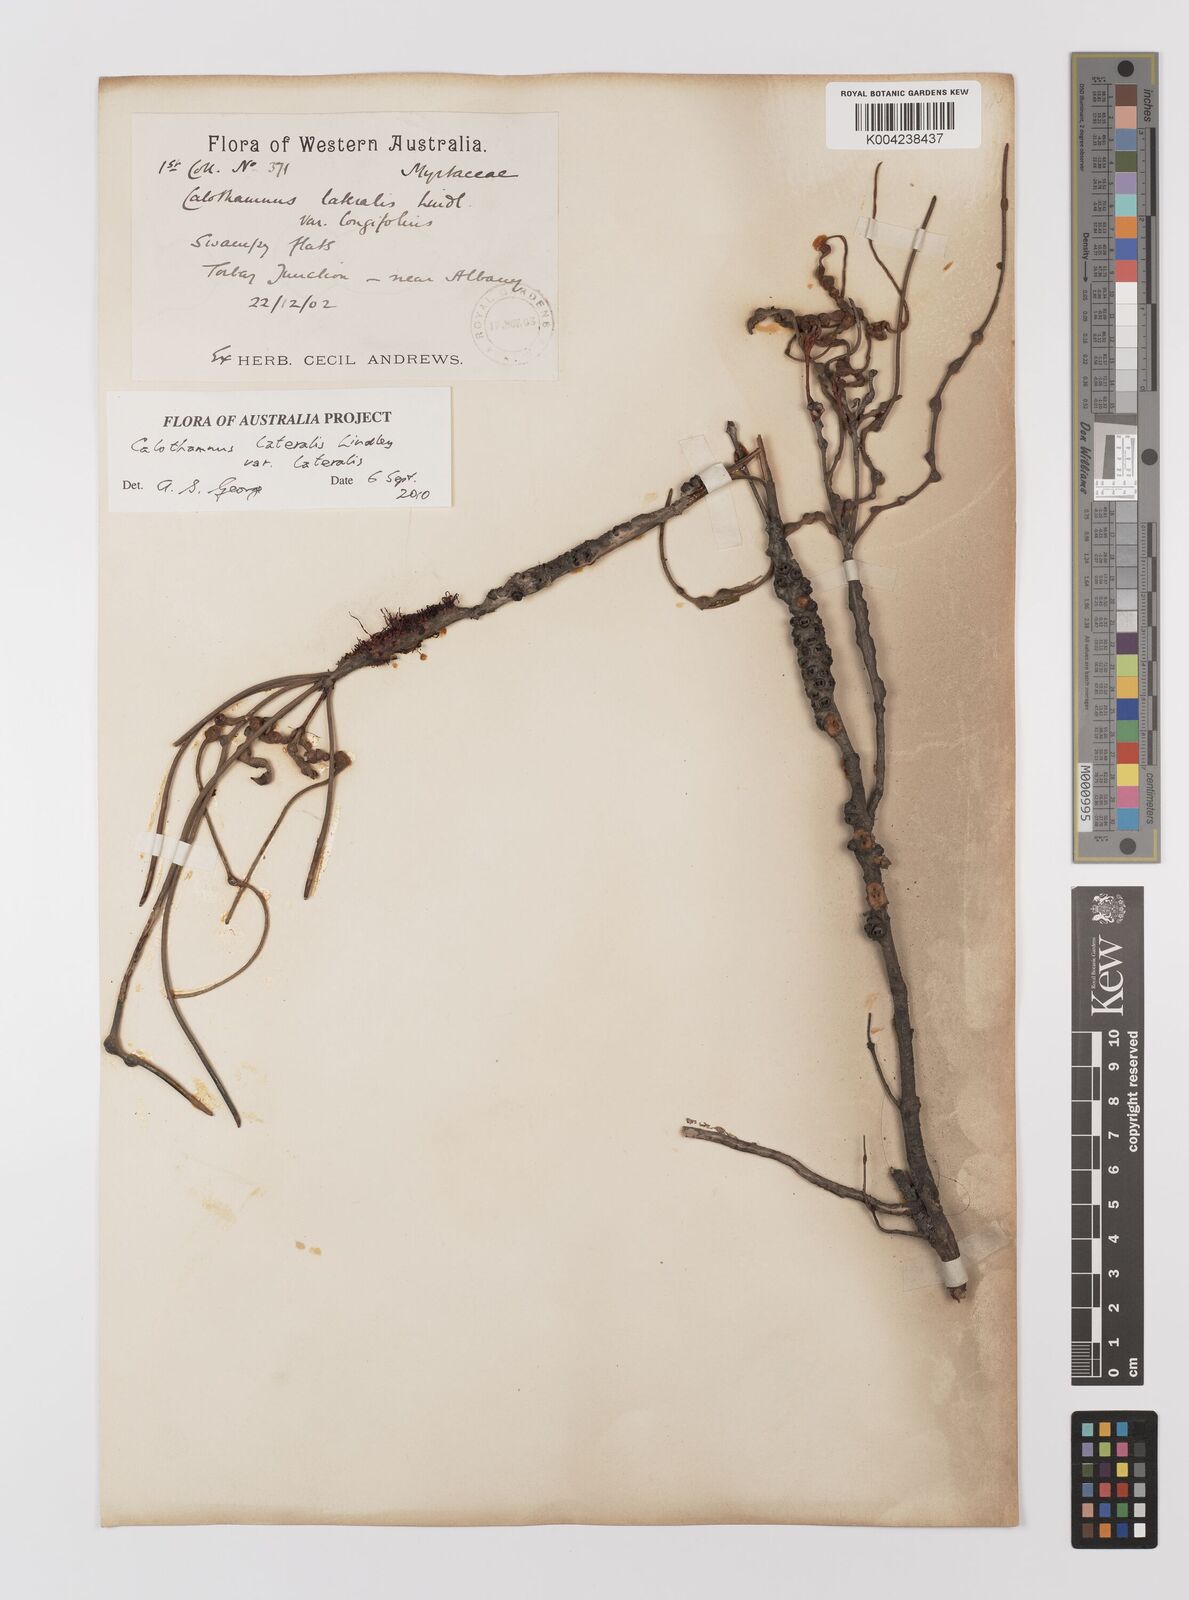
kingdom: Plantae
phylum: Tracheophyta
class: Magnoliopsida
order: Myrtales
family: Myrtaceae
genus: Melaleuca
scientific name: Melaleuca lateralis
